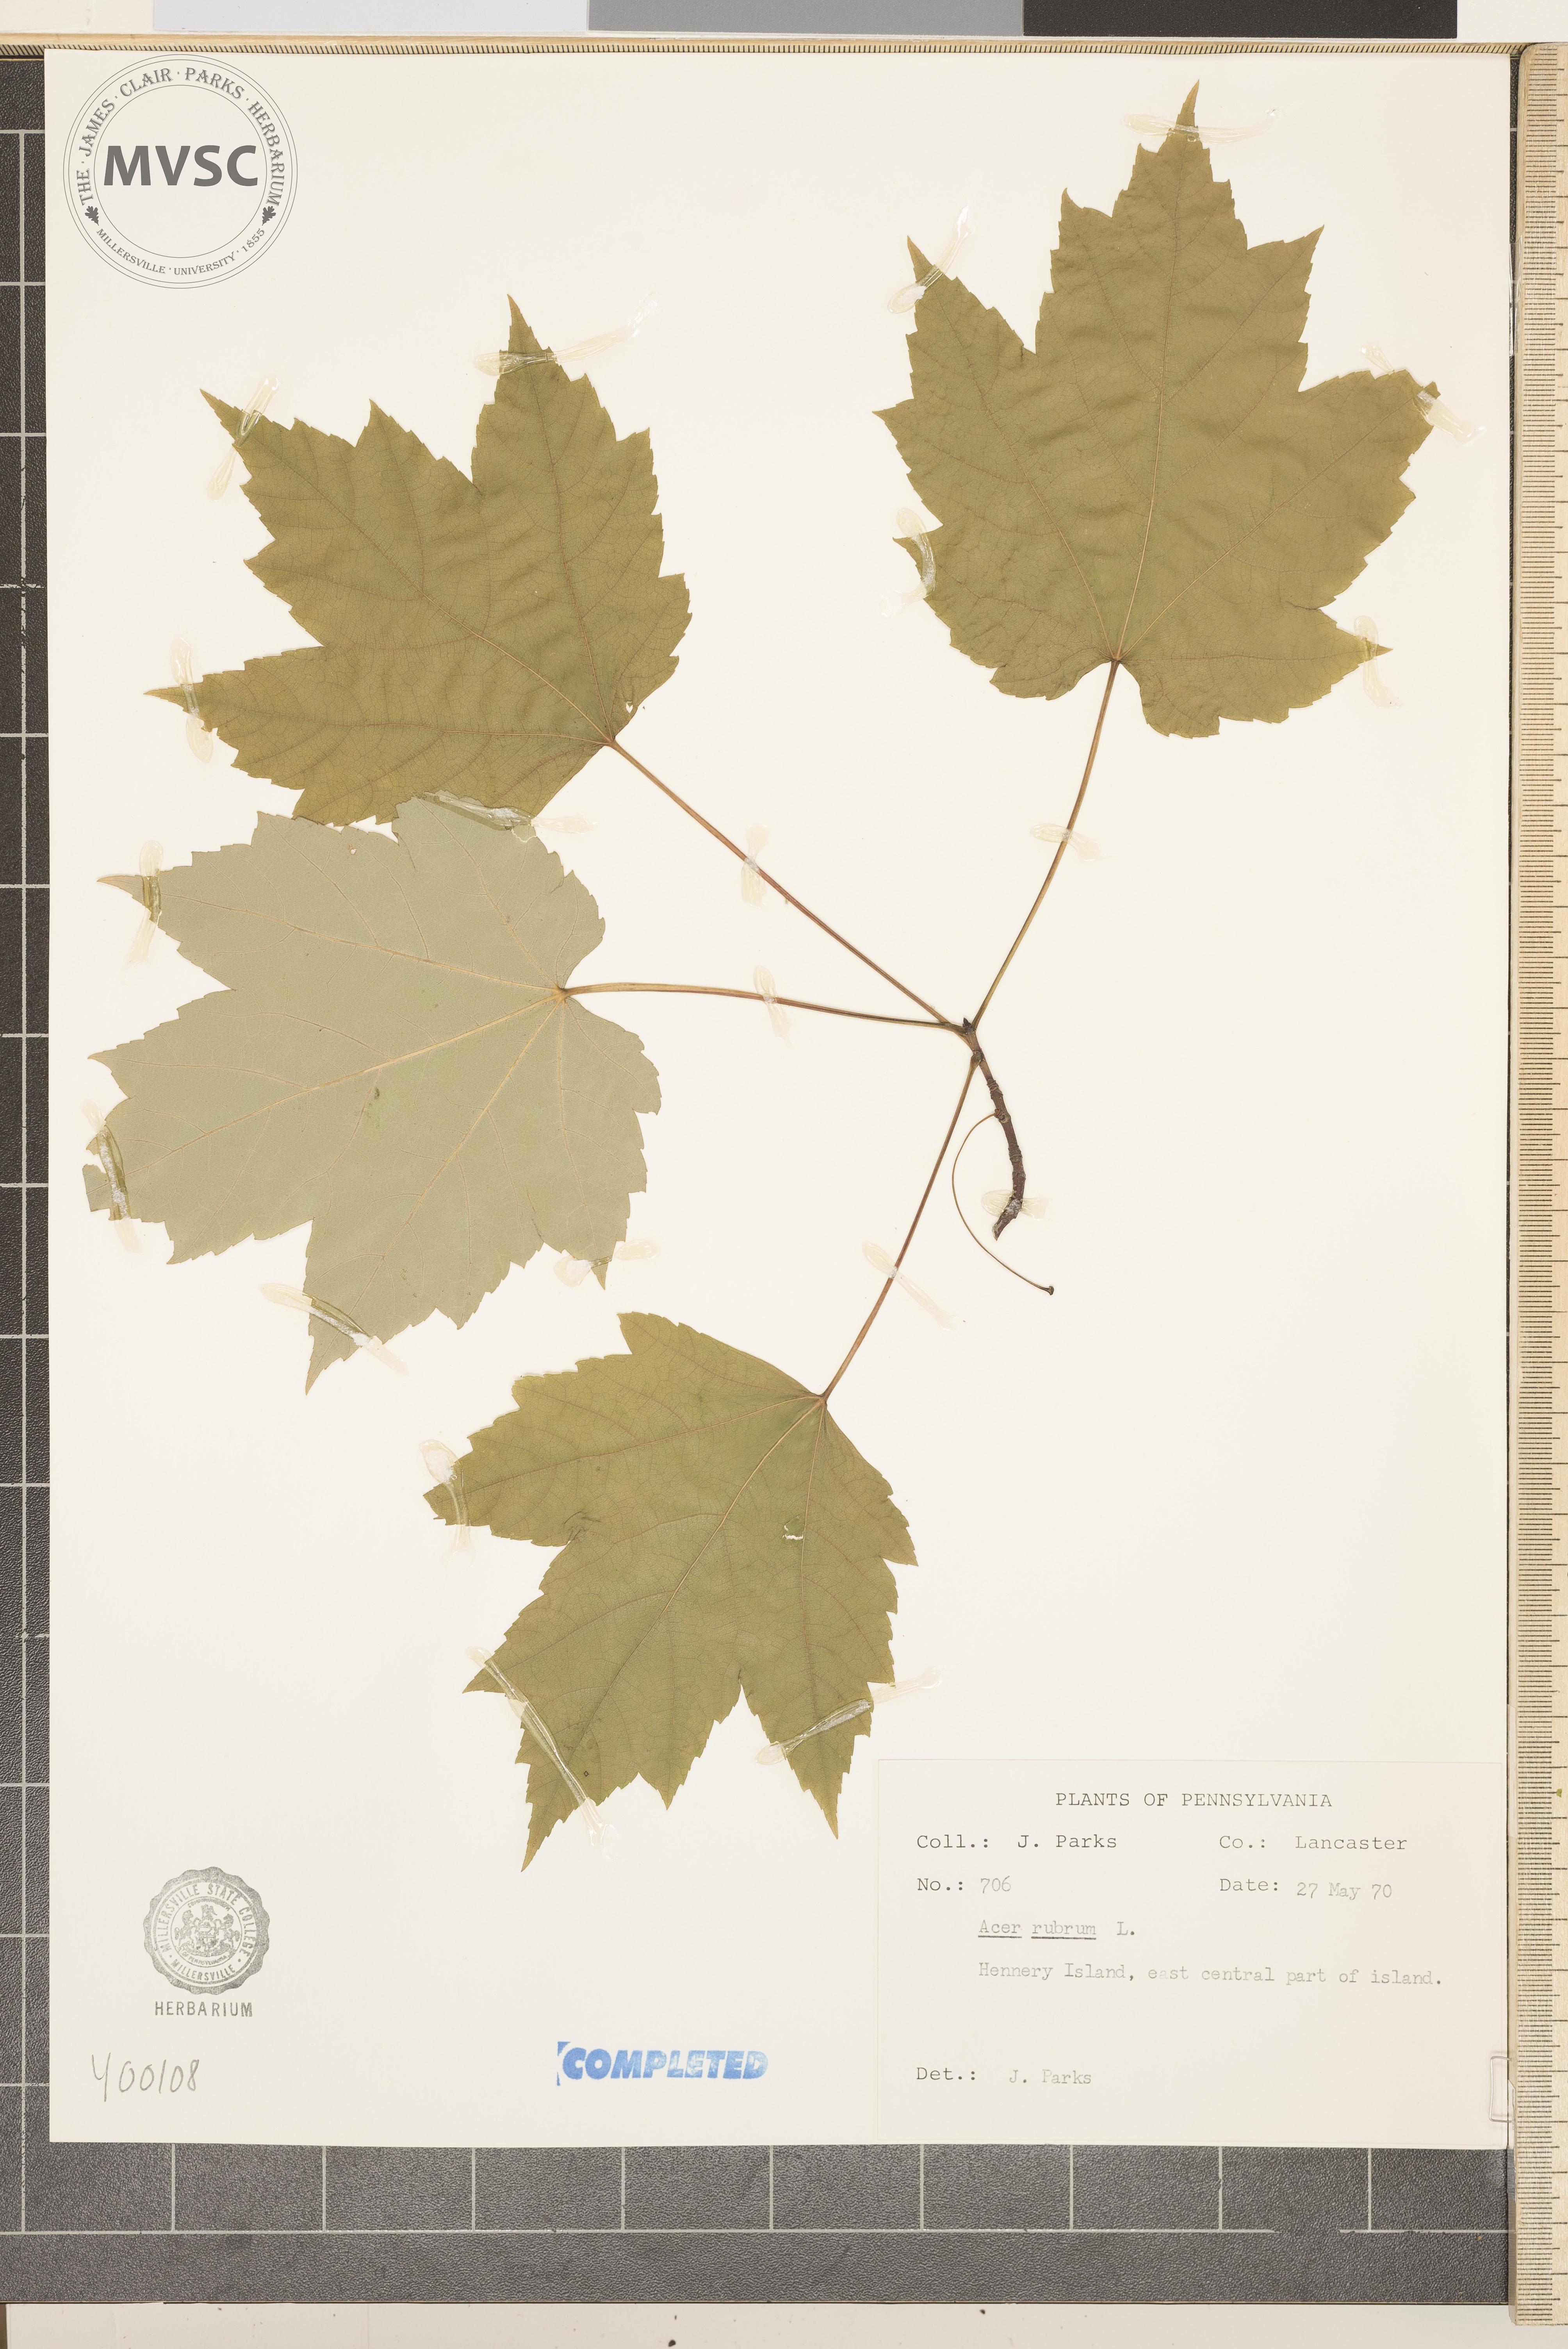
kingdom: Plantae
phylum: Tracheophyta
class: Magnoliopsida
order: Sapindales
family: Sapindaceae
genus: Acer
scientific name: Acer rubrum
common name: red maple
